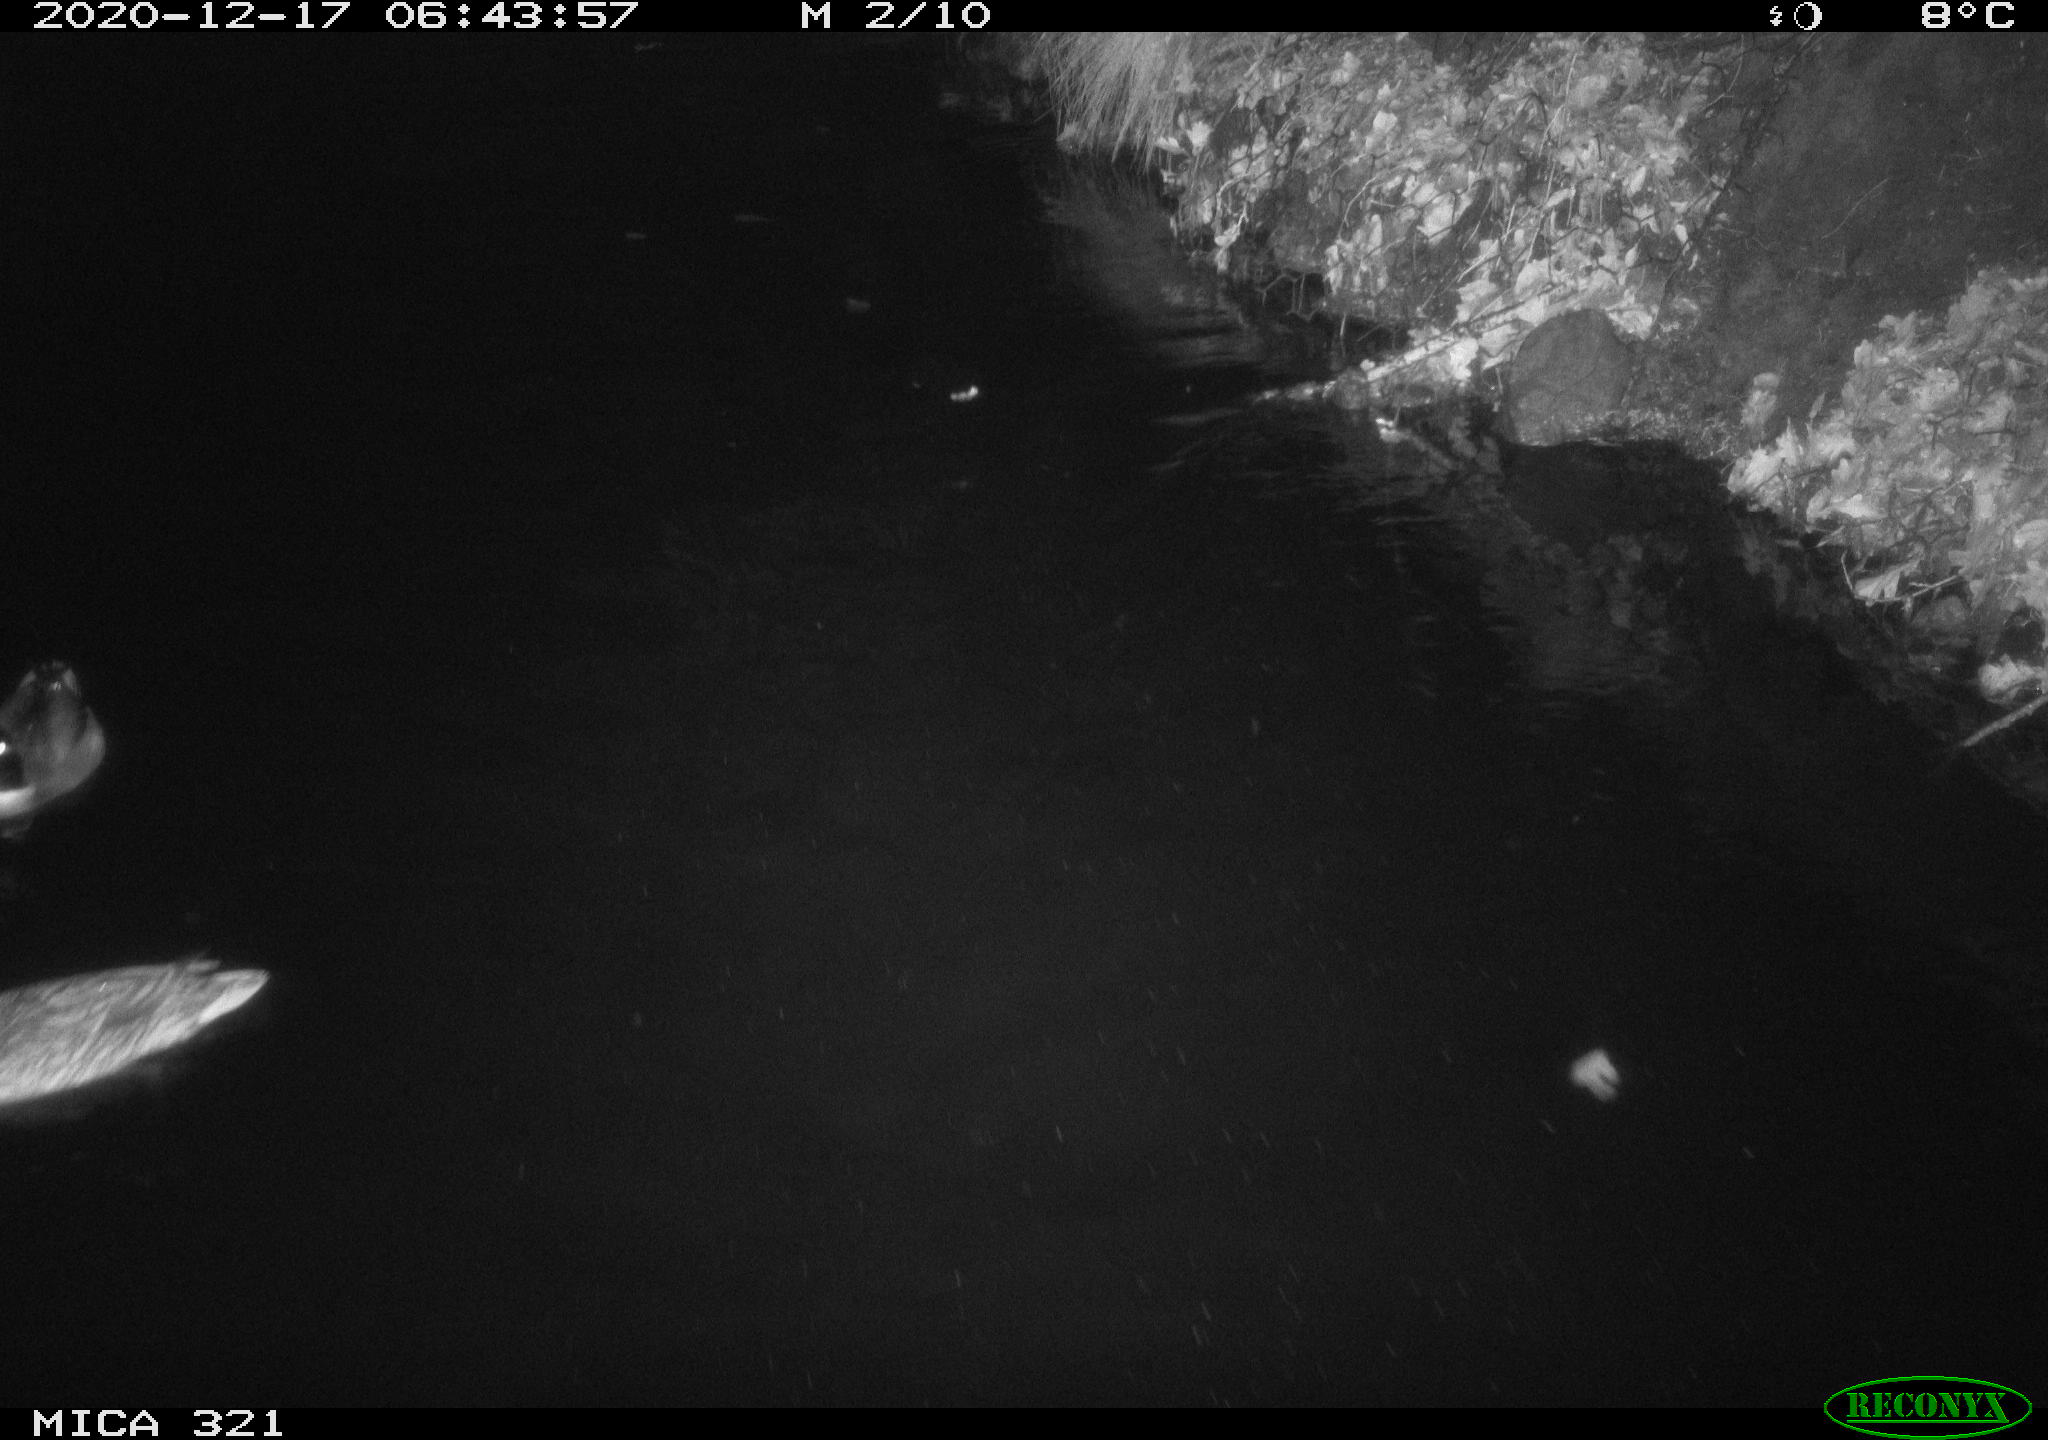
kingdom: Animalia
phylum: Chordata
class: Aves
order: Anseriformes
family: Anatidae
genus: Anas
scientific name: Anas platyrhynchos
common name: Mallard
